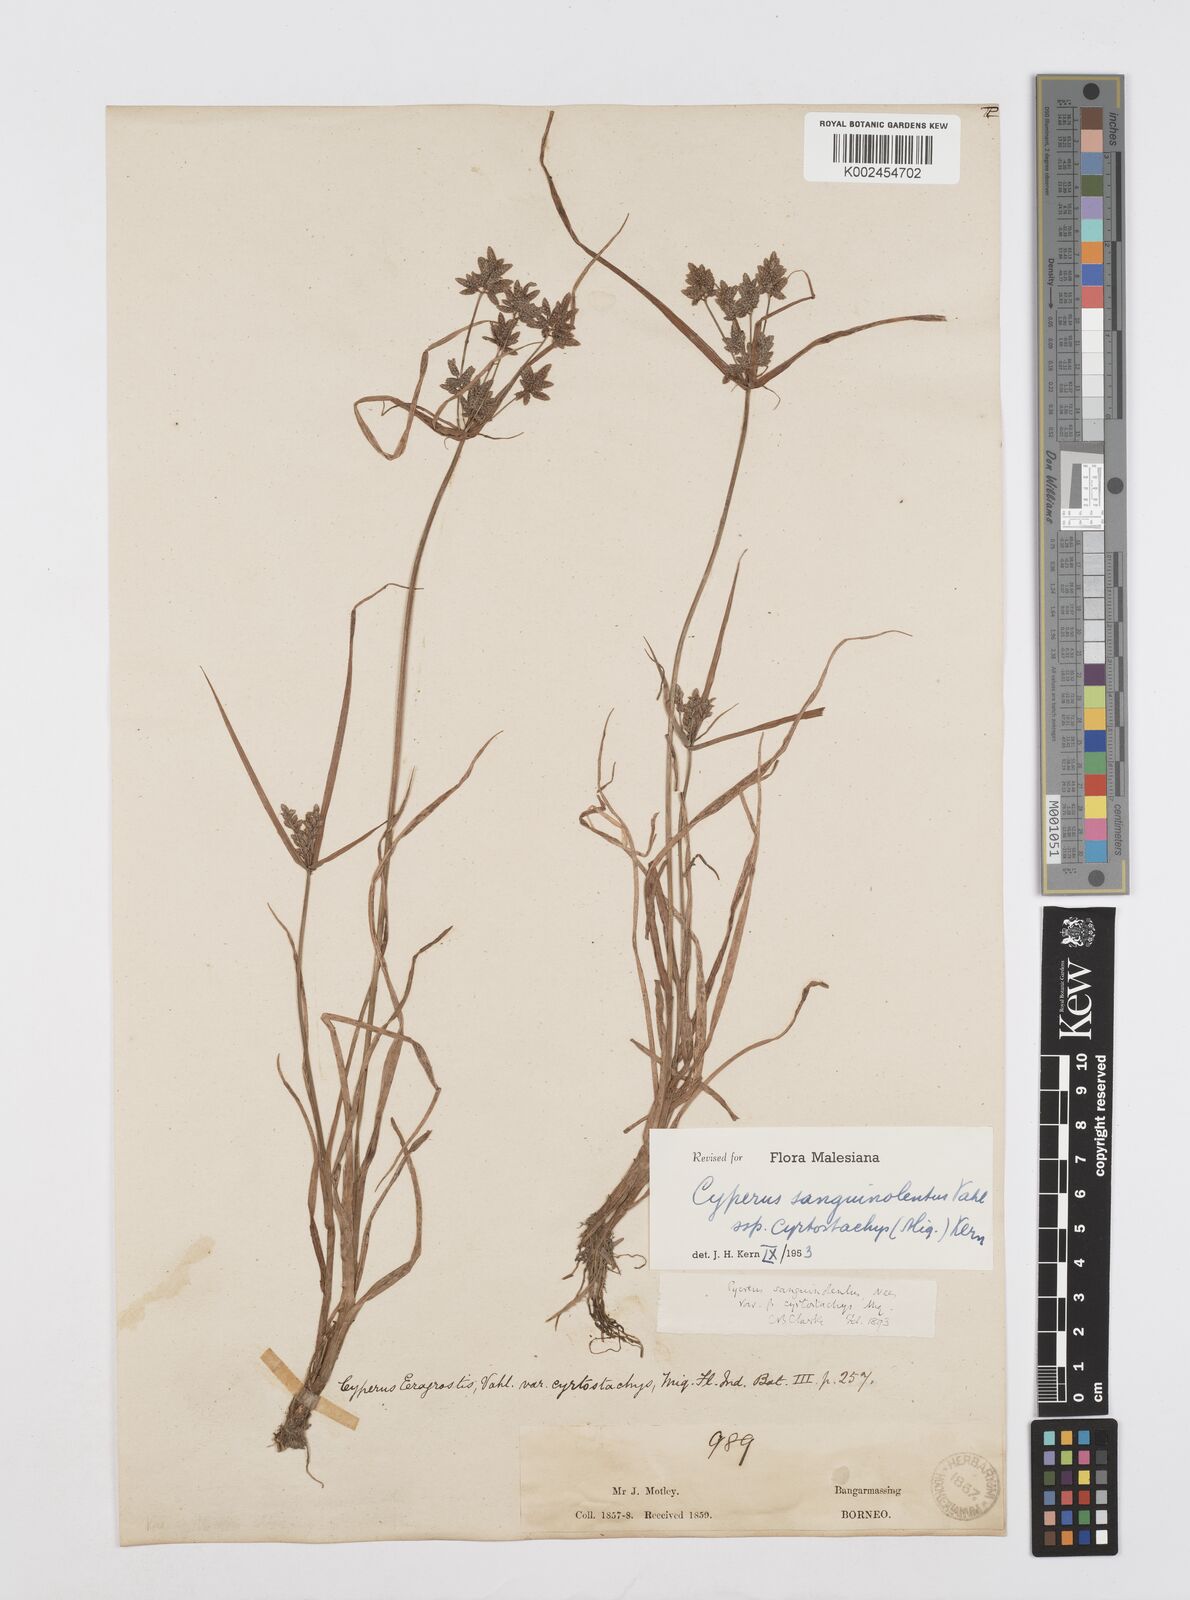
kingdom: Plantae
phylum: Tracheophyta
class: Liliopsida
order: Poales
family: Cyperaceae
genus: Cyperus
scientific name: Cyperus sanguinolentus
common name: Purpleglume flatsedge
